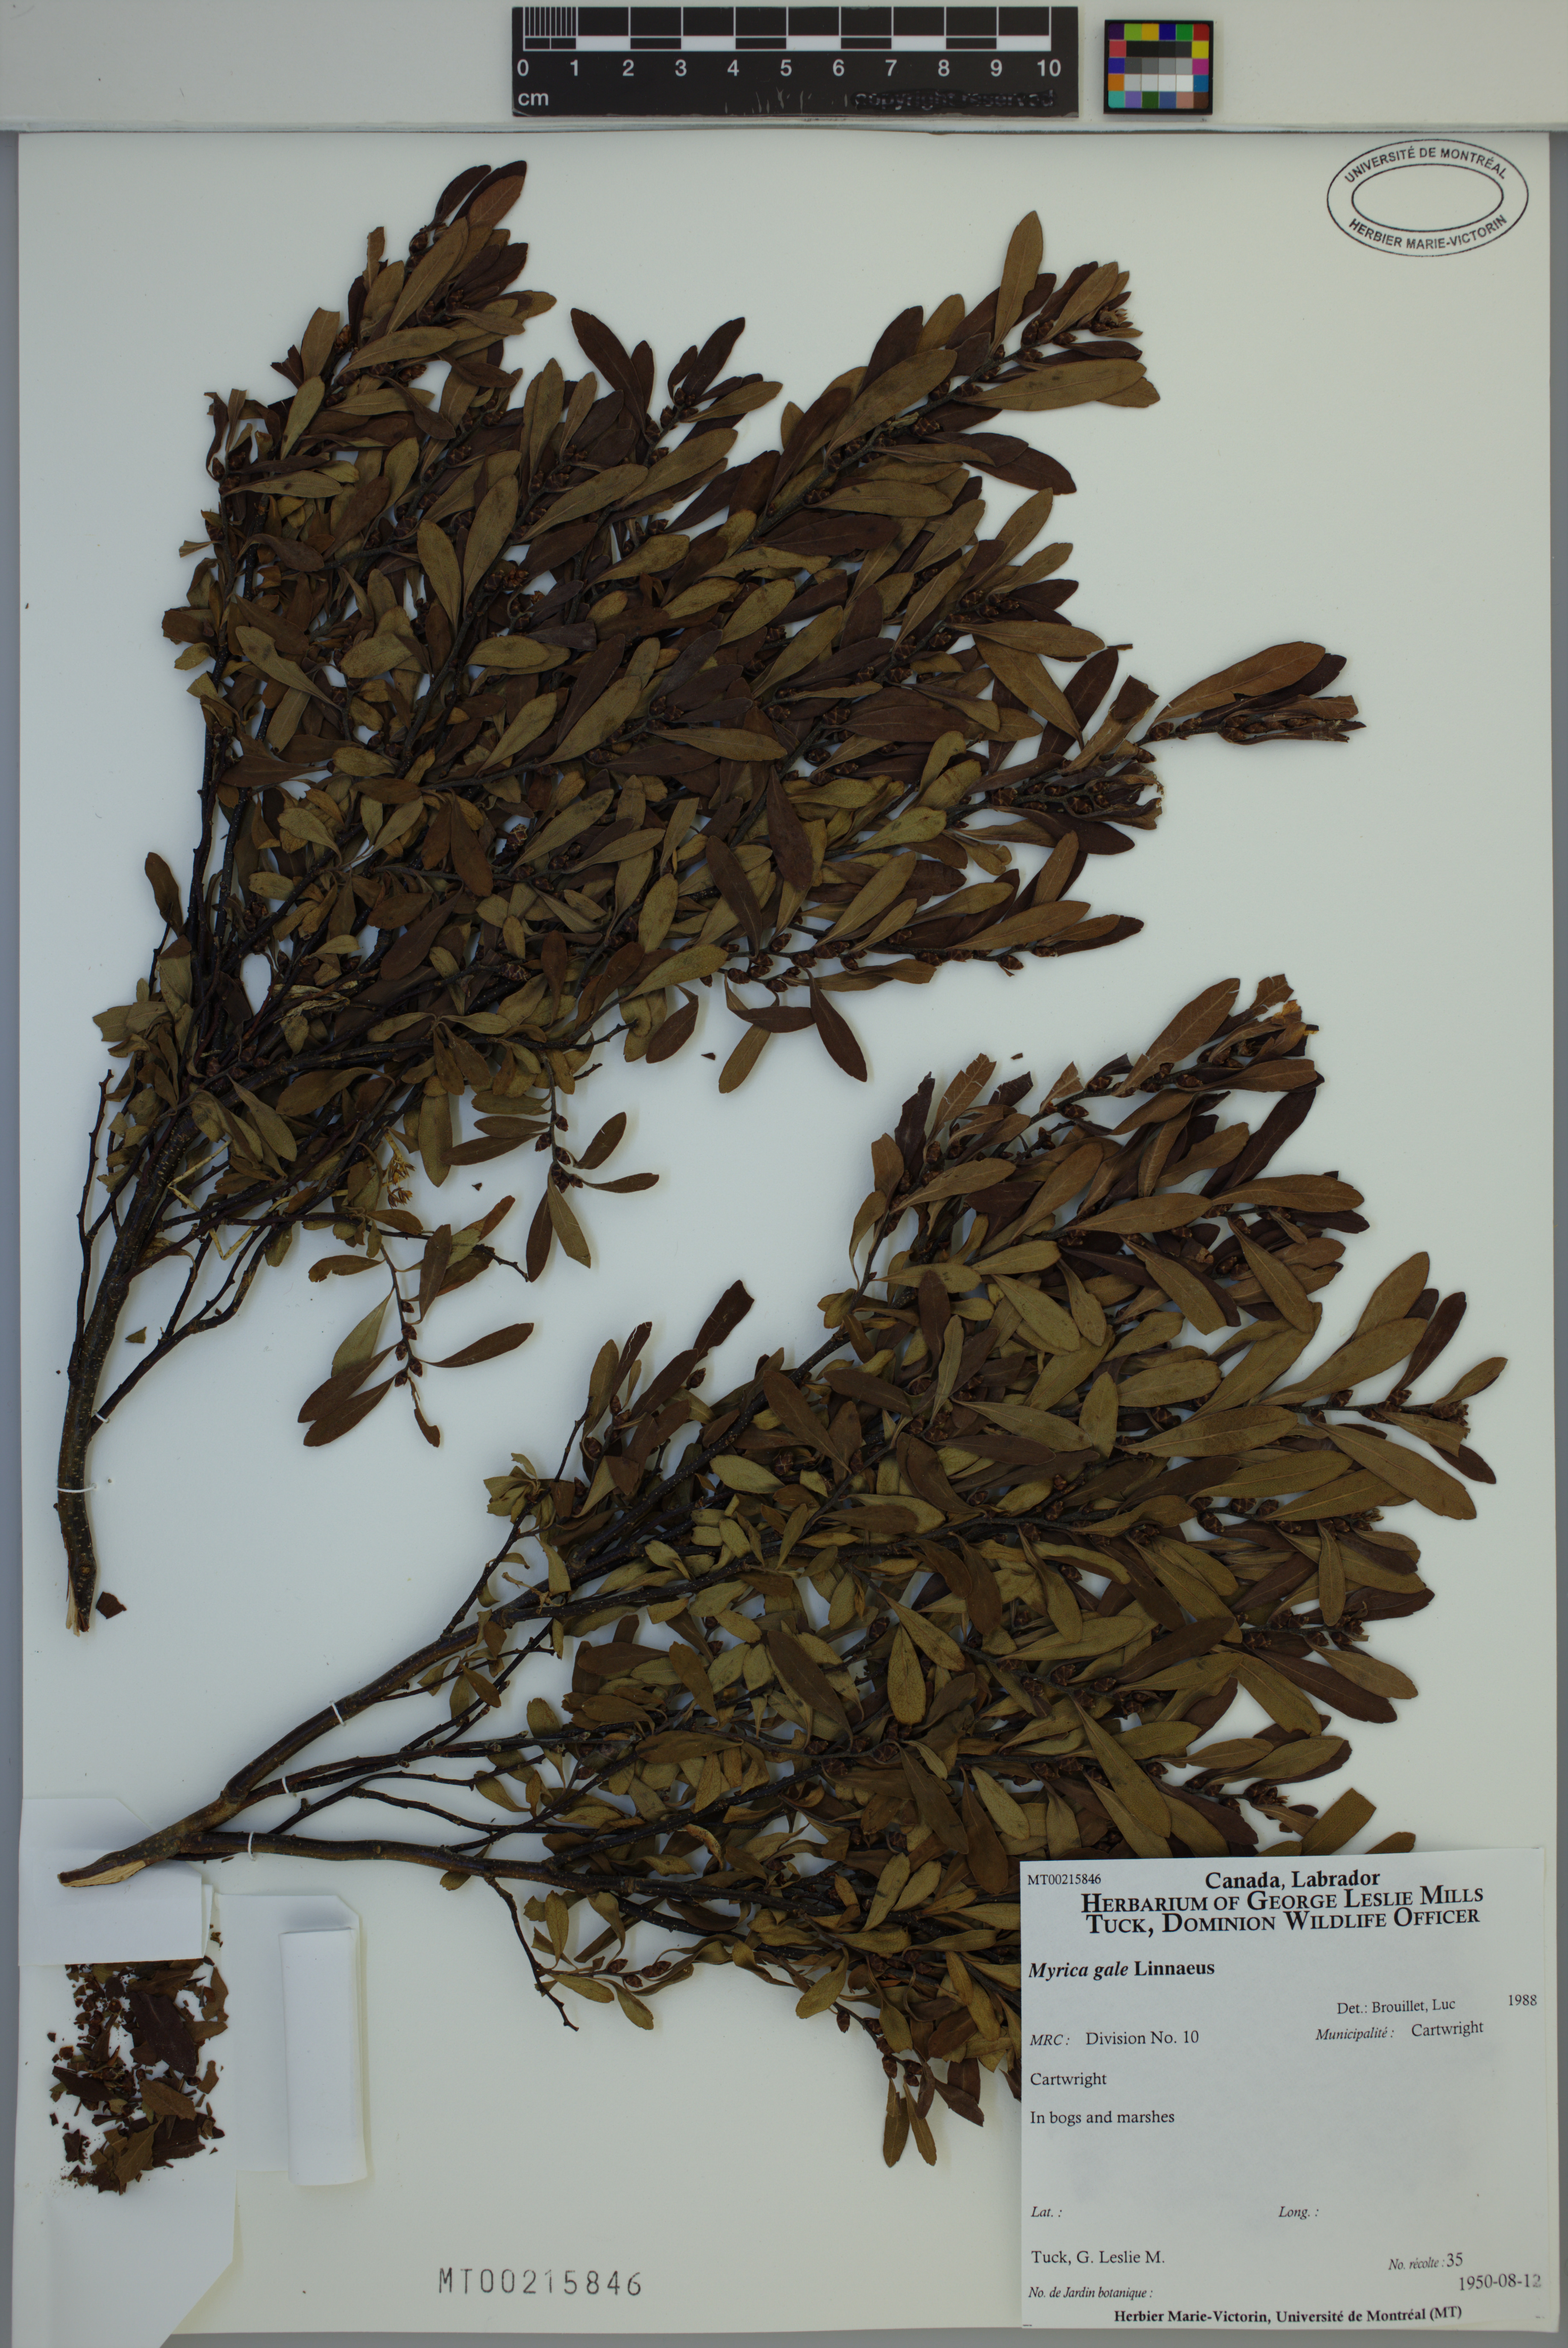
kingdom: Plantae
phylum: Tracheophyta
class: Magnoliopsida
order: Fagales
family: Myricaceae
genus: Myrica
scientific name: Myrica gale
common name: Sweet gale
